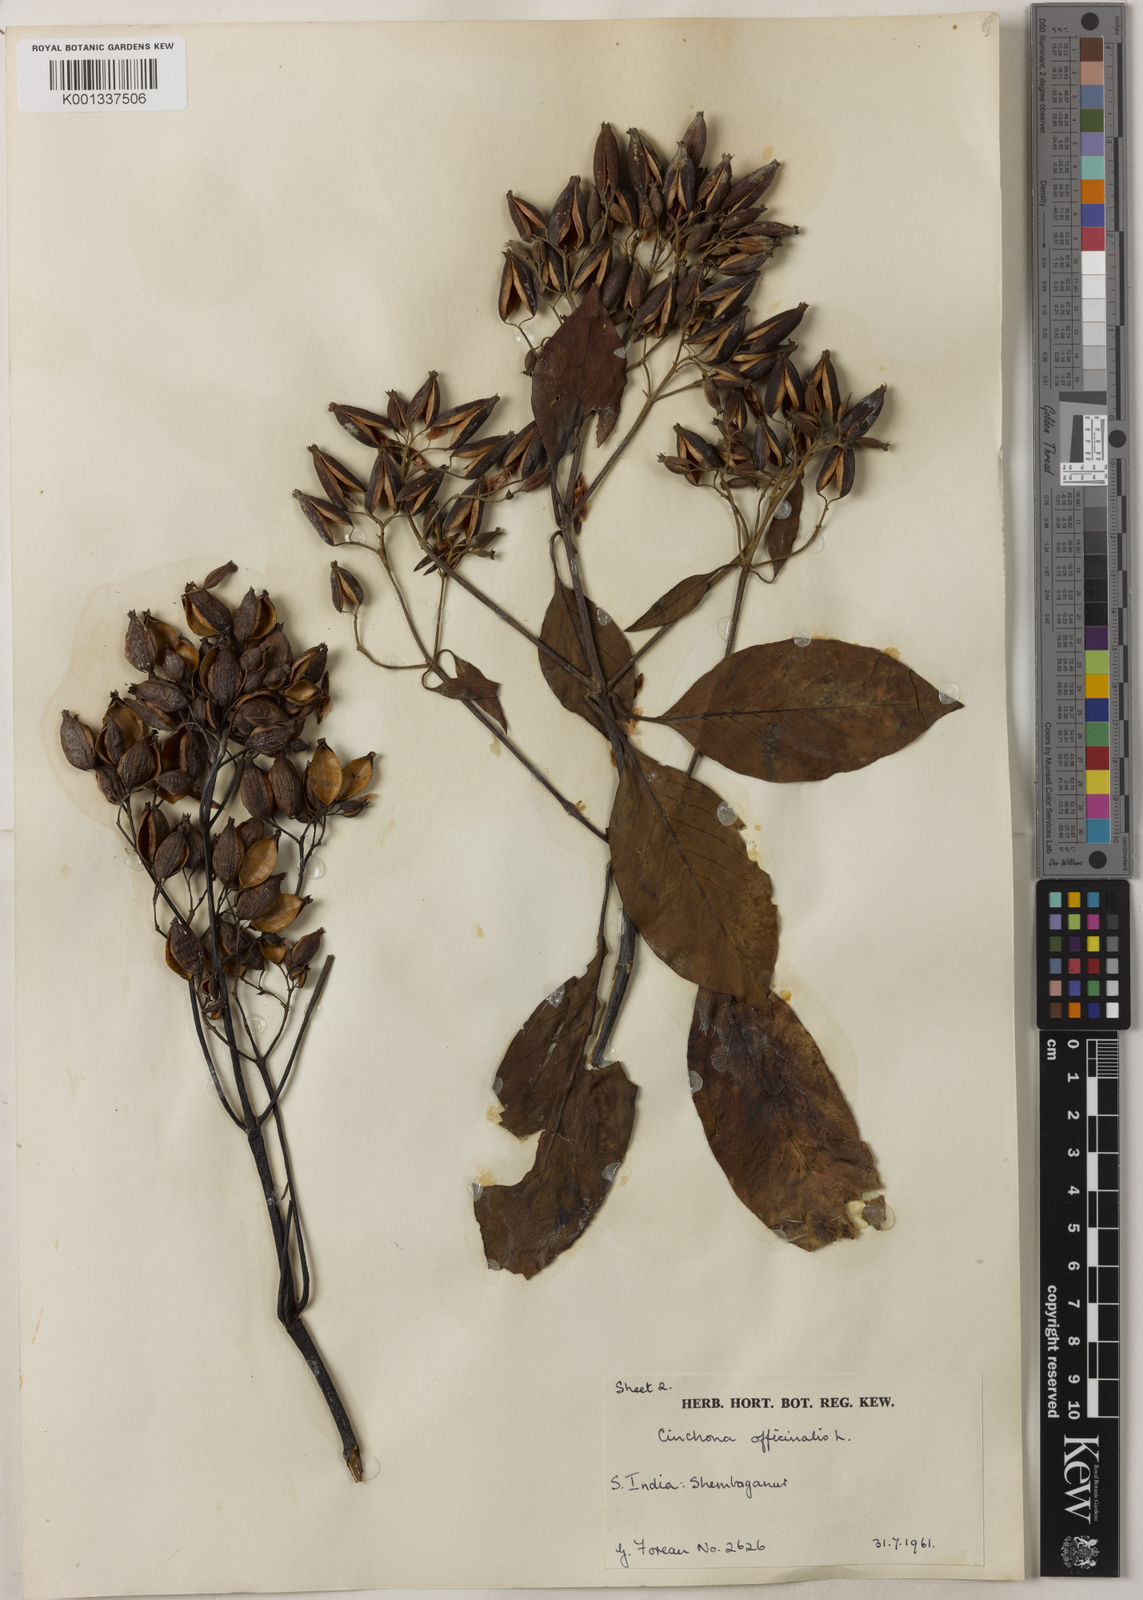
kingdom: Plantae
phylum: Tracheophyta
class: Magnoliopsida
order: Gentianales
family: Rubiaceae
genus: Cinchona
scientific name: Cinchona officinalis
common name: Lojabark
